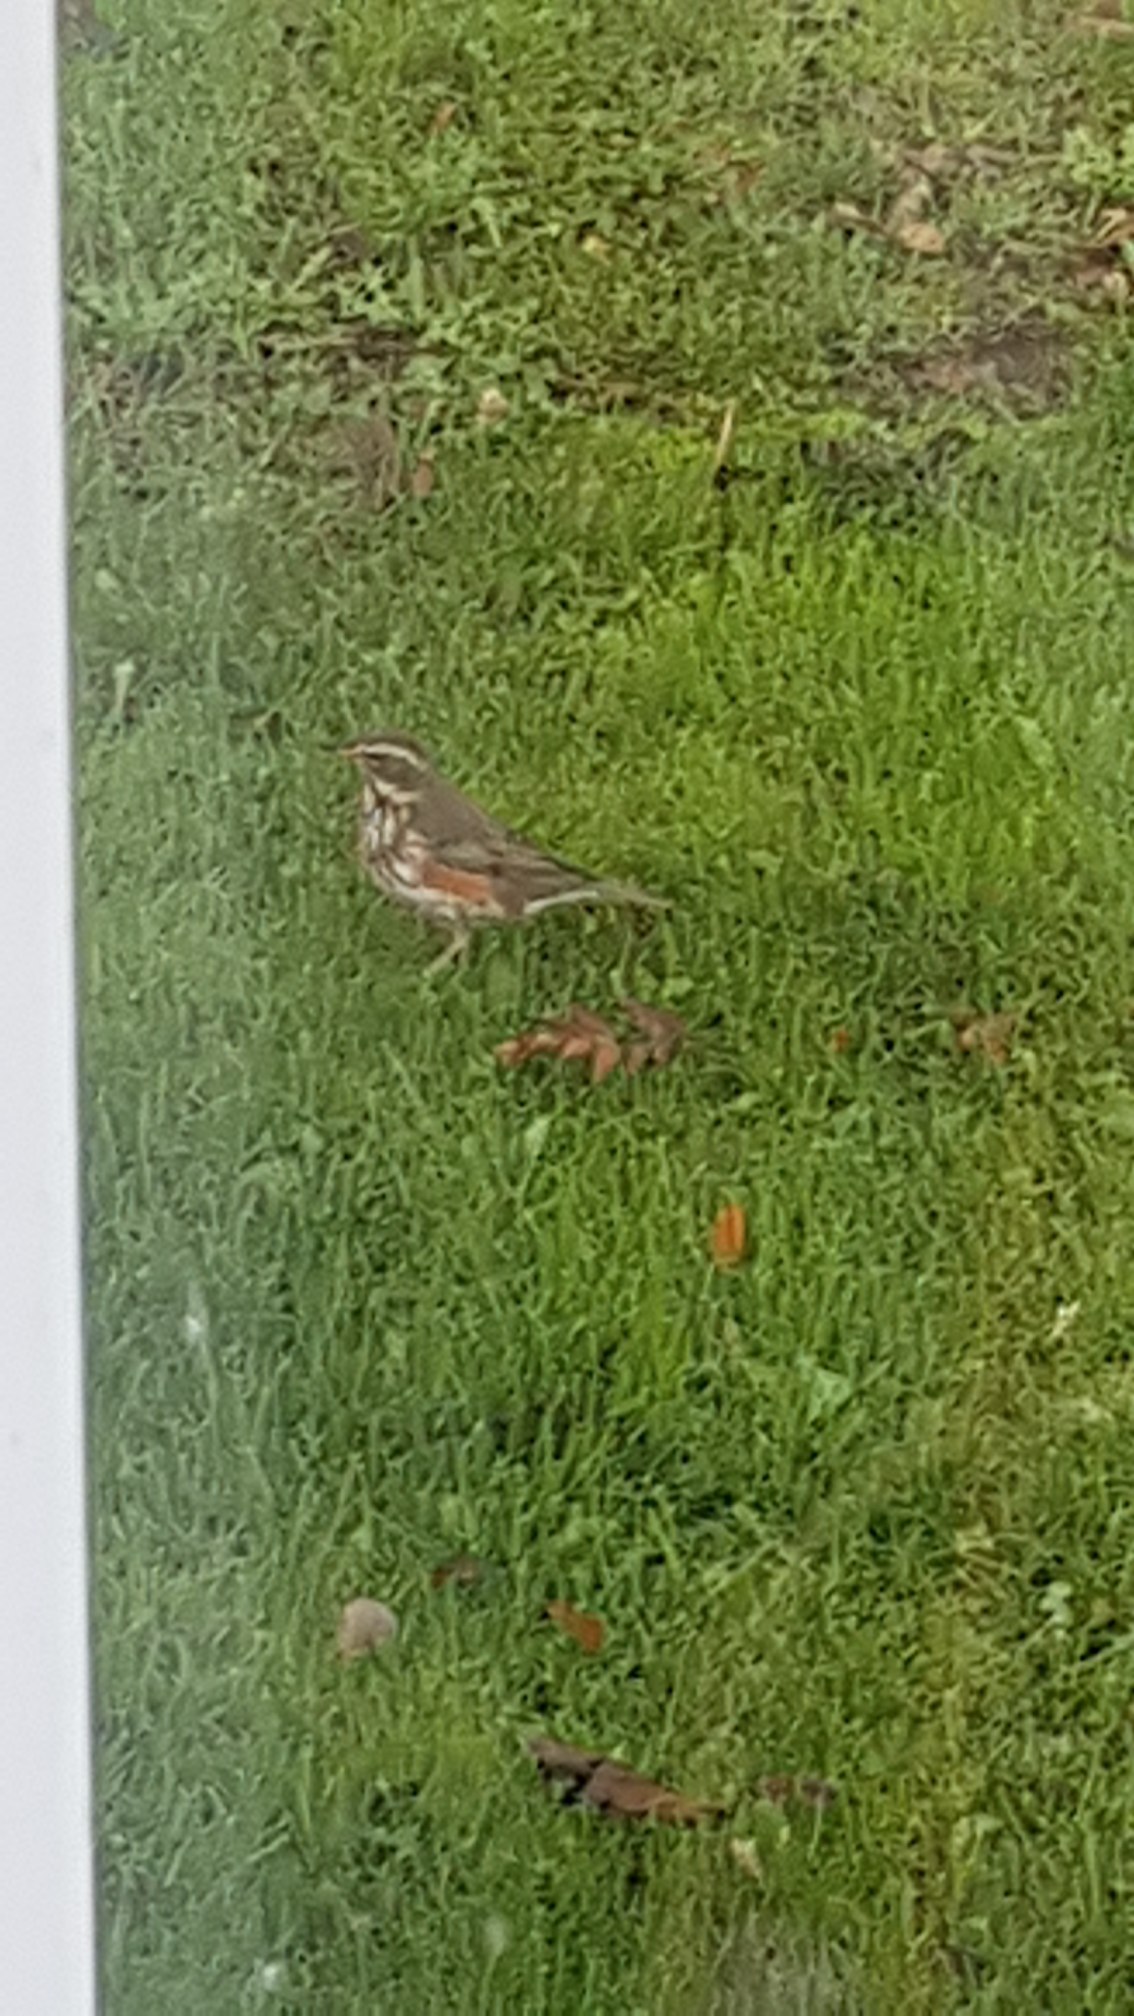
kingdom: Animalia
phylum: Chordata
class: Aves
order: Passeriformes
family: Turdidae
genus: Turdus
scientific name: Turdus iliacus
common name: Vindrossel
